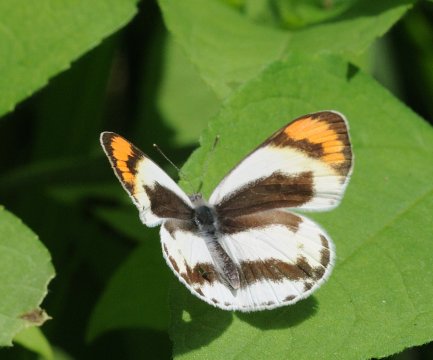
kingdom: Animalia
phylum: Arthropoda
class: Insecta
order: Lepidoptera
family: Pieridae
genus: Colotis
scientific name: Colotis euippe
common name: Round-winged Orange Tip
